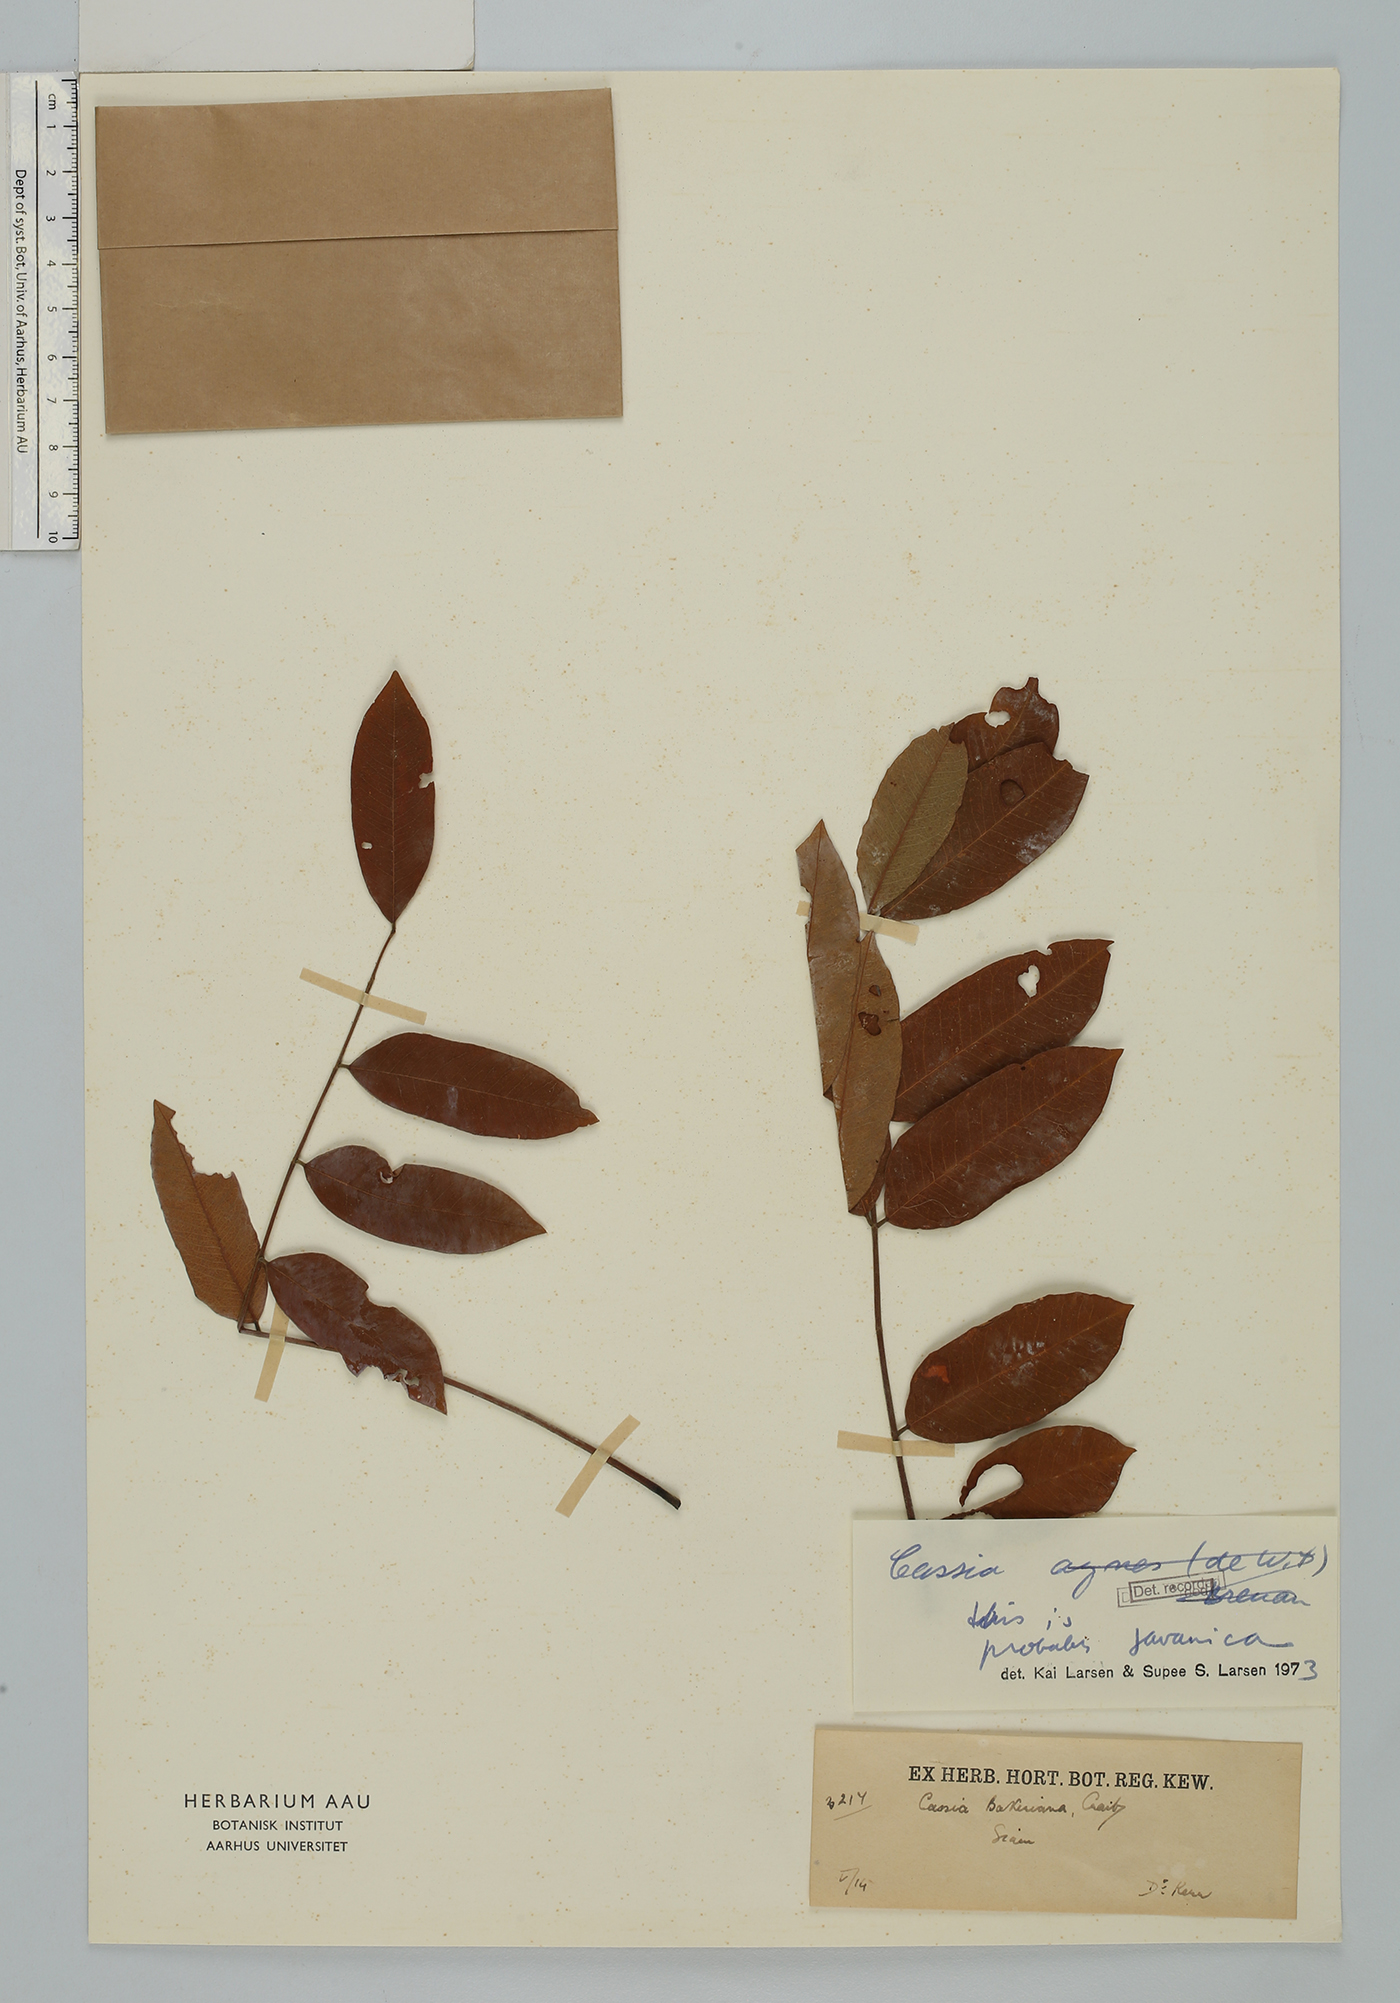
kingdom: Plantae
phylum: Tracheophyta
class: Magnoliopsida
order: Fabales
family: Fabaceae
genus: Cassia
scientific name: Cassia javanica
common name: Apple blossom
